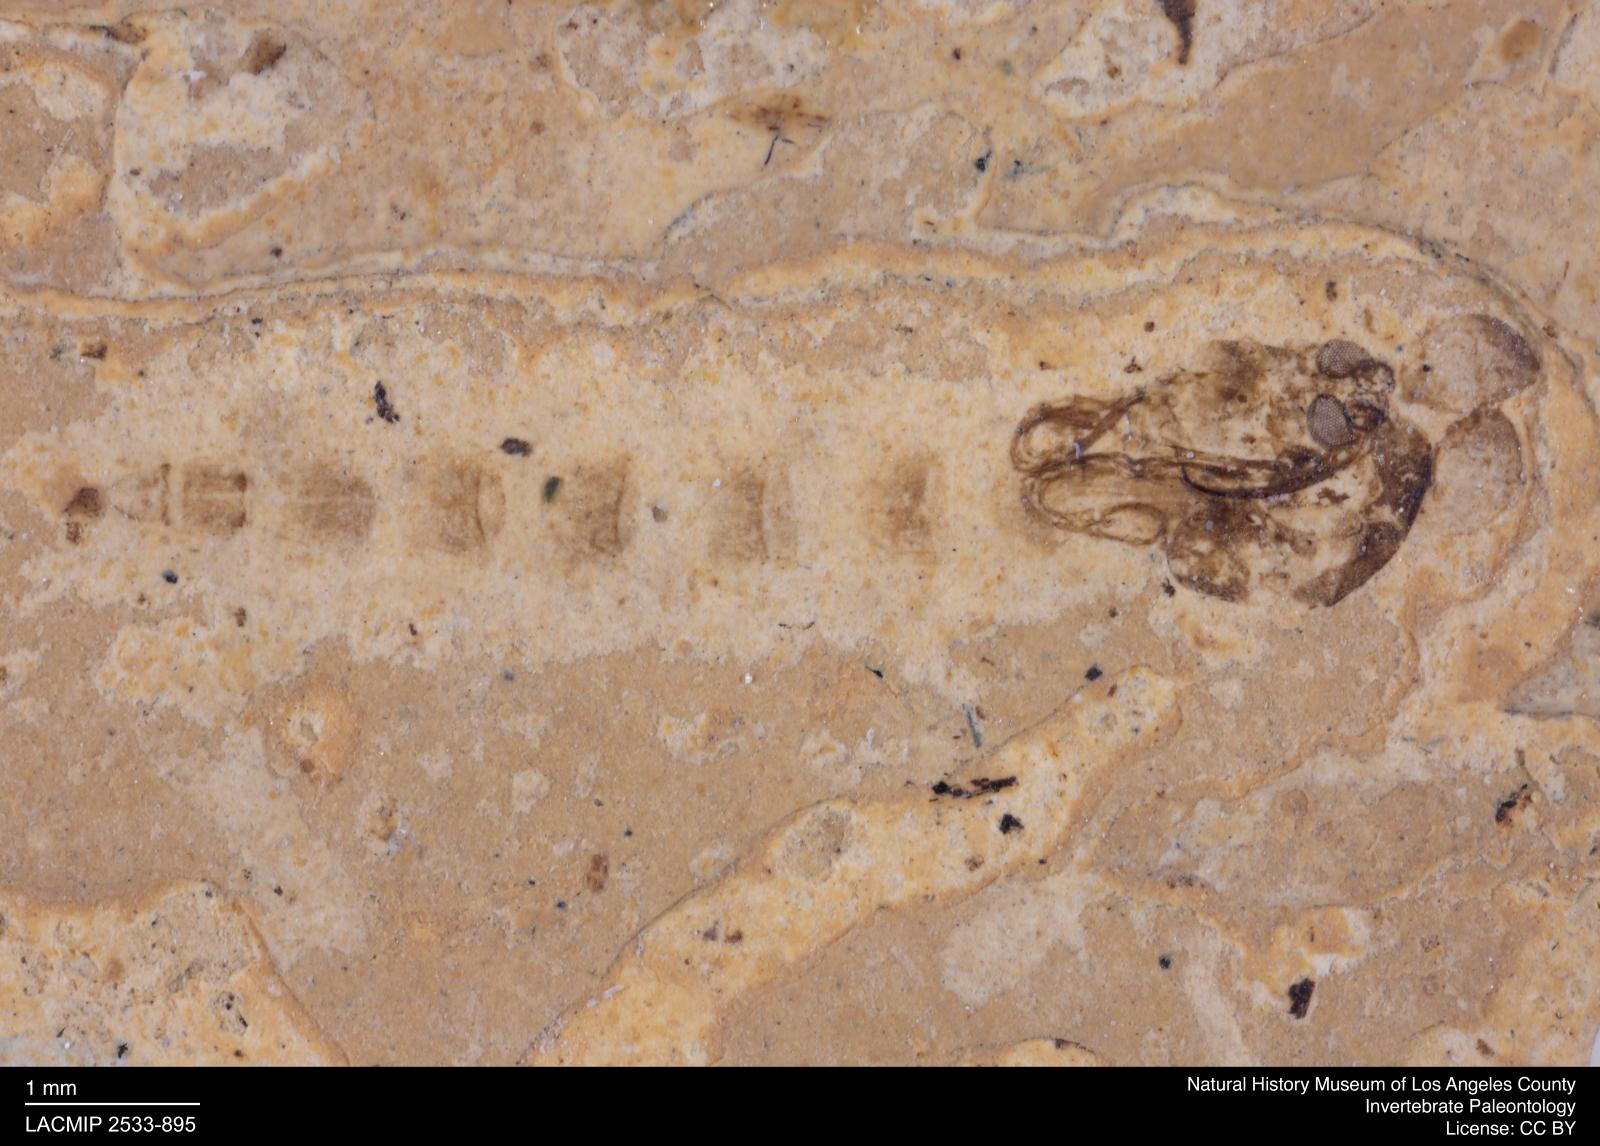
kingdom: Animalia
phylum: Arthropoda
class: Insecta
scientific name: Insecta
